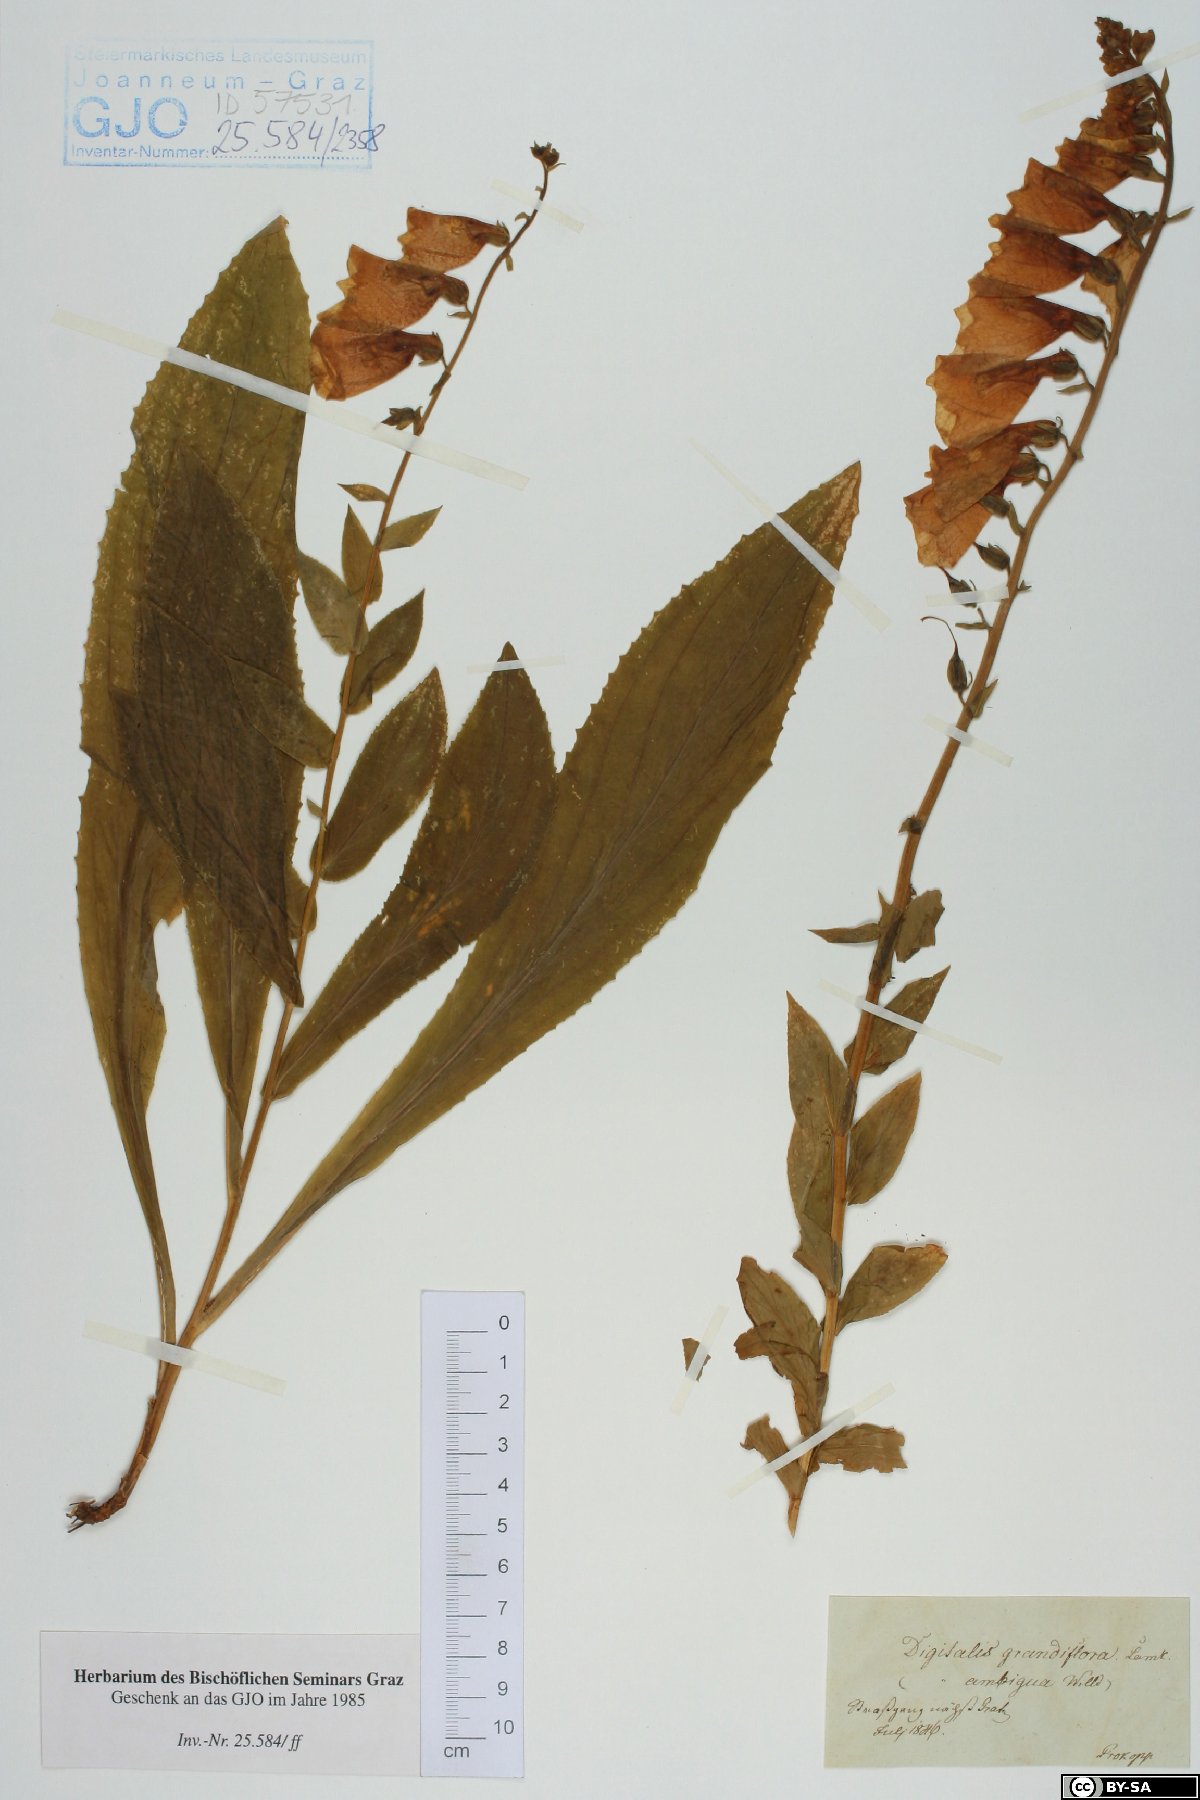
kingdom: Plantae
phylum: Tracheophyta
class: Magnoliopsida
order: Lamiales
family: Plantaginaceae
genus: Digitalis
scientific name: Digitalis grandiflora
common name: Yellow foxglove
